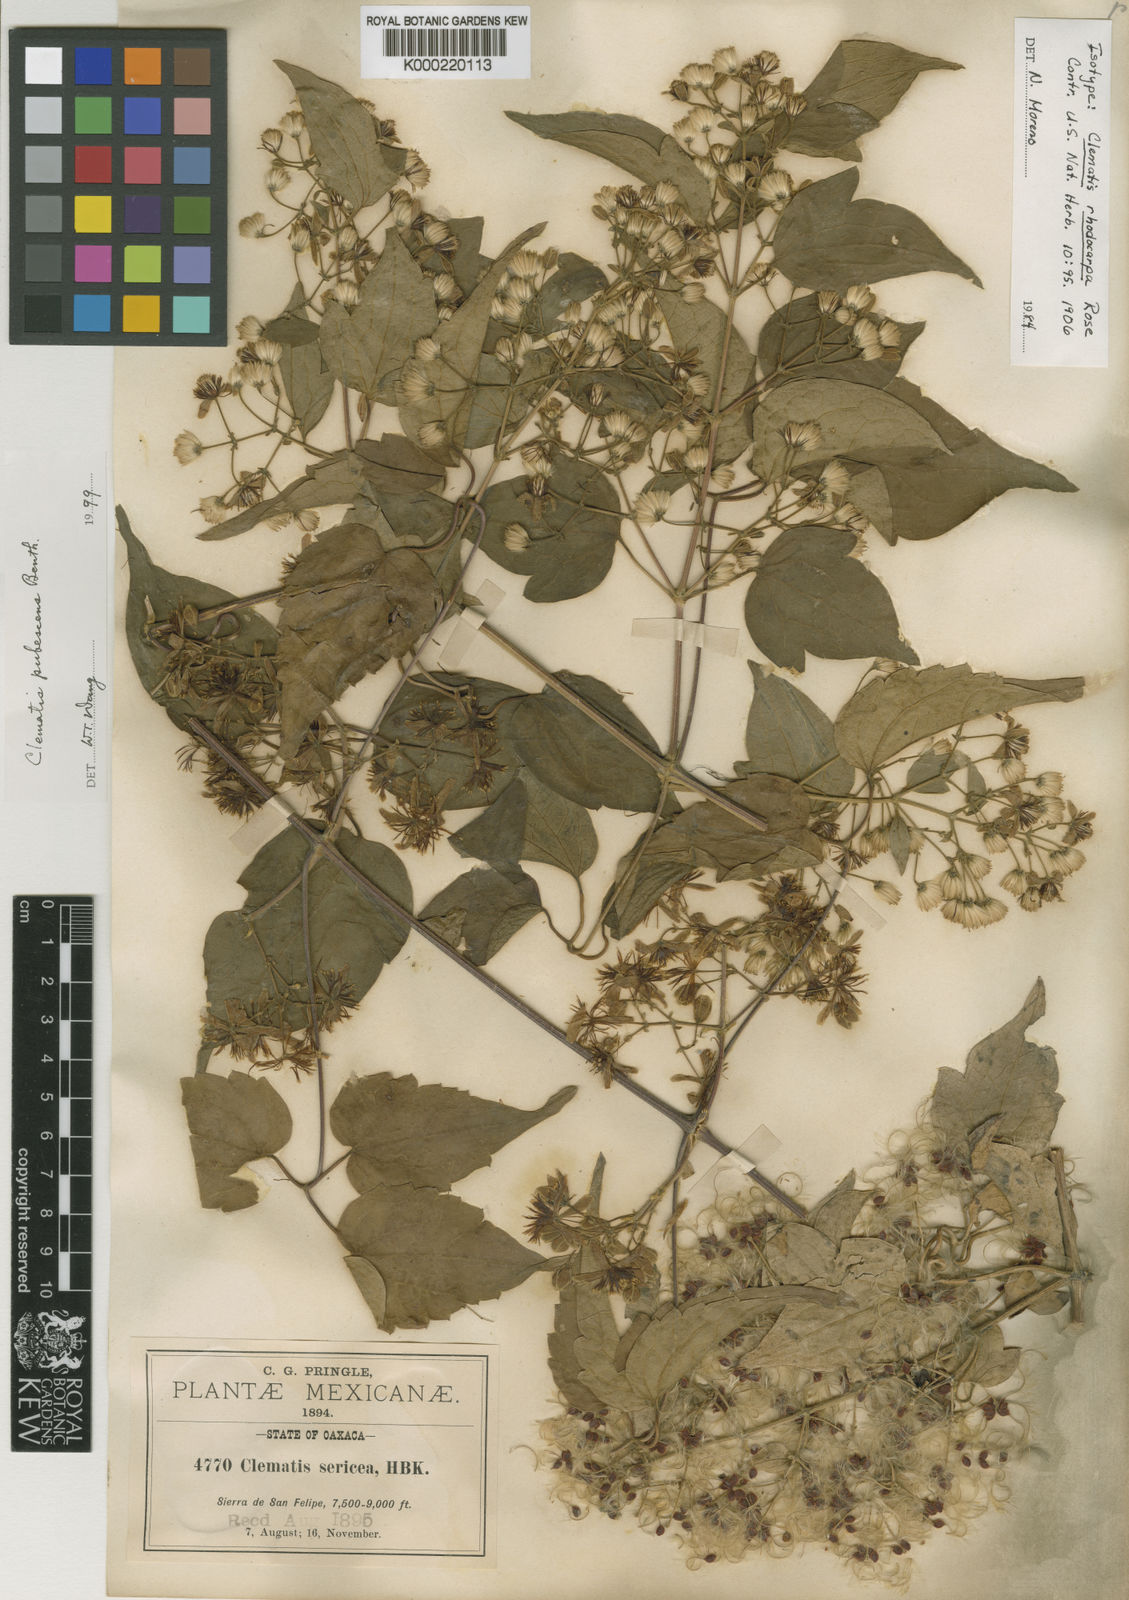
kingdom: Plantae
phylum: Tracheophyta
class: Magnoliopsida
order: Ranunculales
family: Ranunculaceae
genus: Clematis
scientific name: Clematis rhodocarpa
